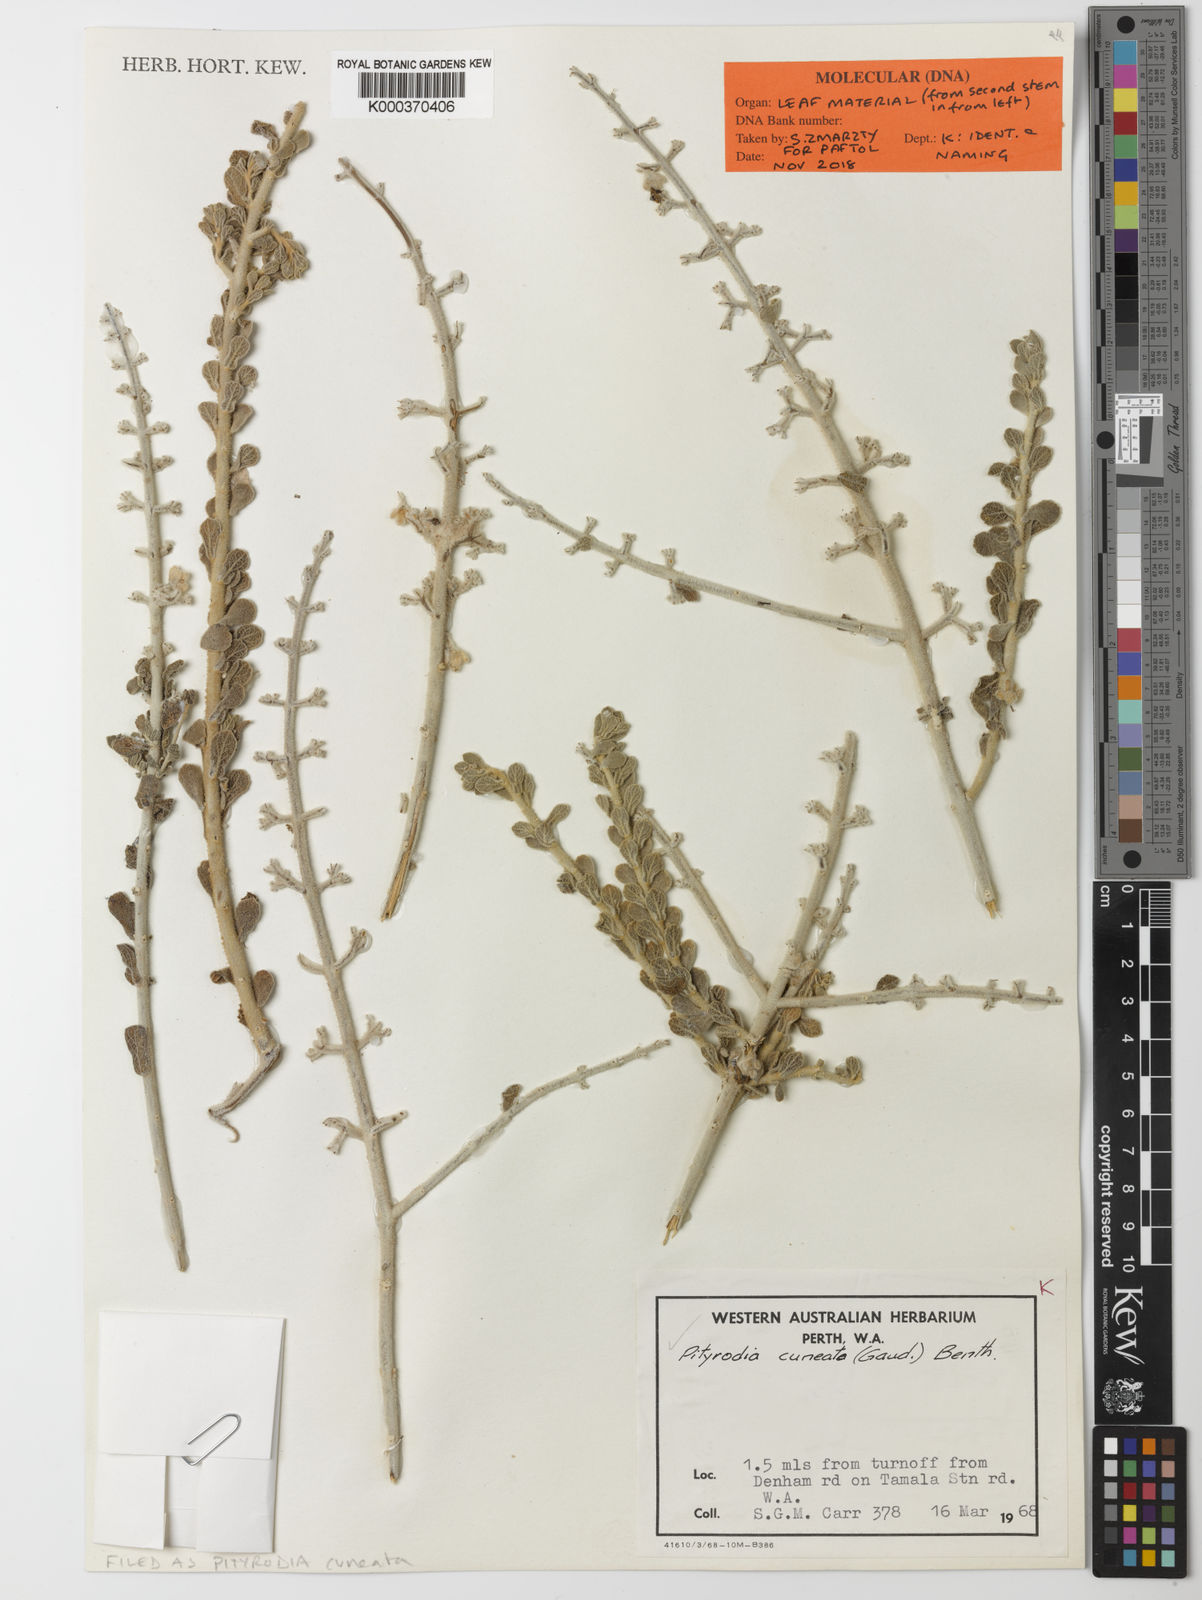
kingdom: Plantae
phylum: Tracheophyta
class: Magnoliopsida
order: Lamiales
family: Lamiaceae
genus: Quoya
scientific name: Quoya cuneata
